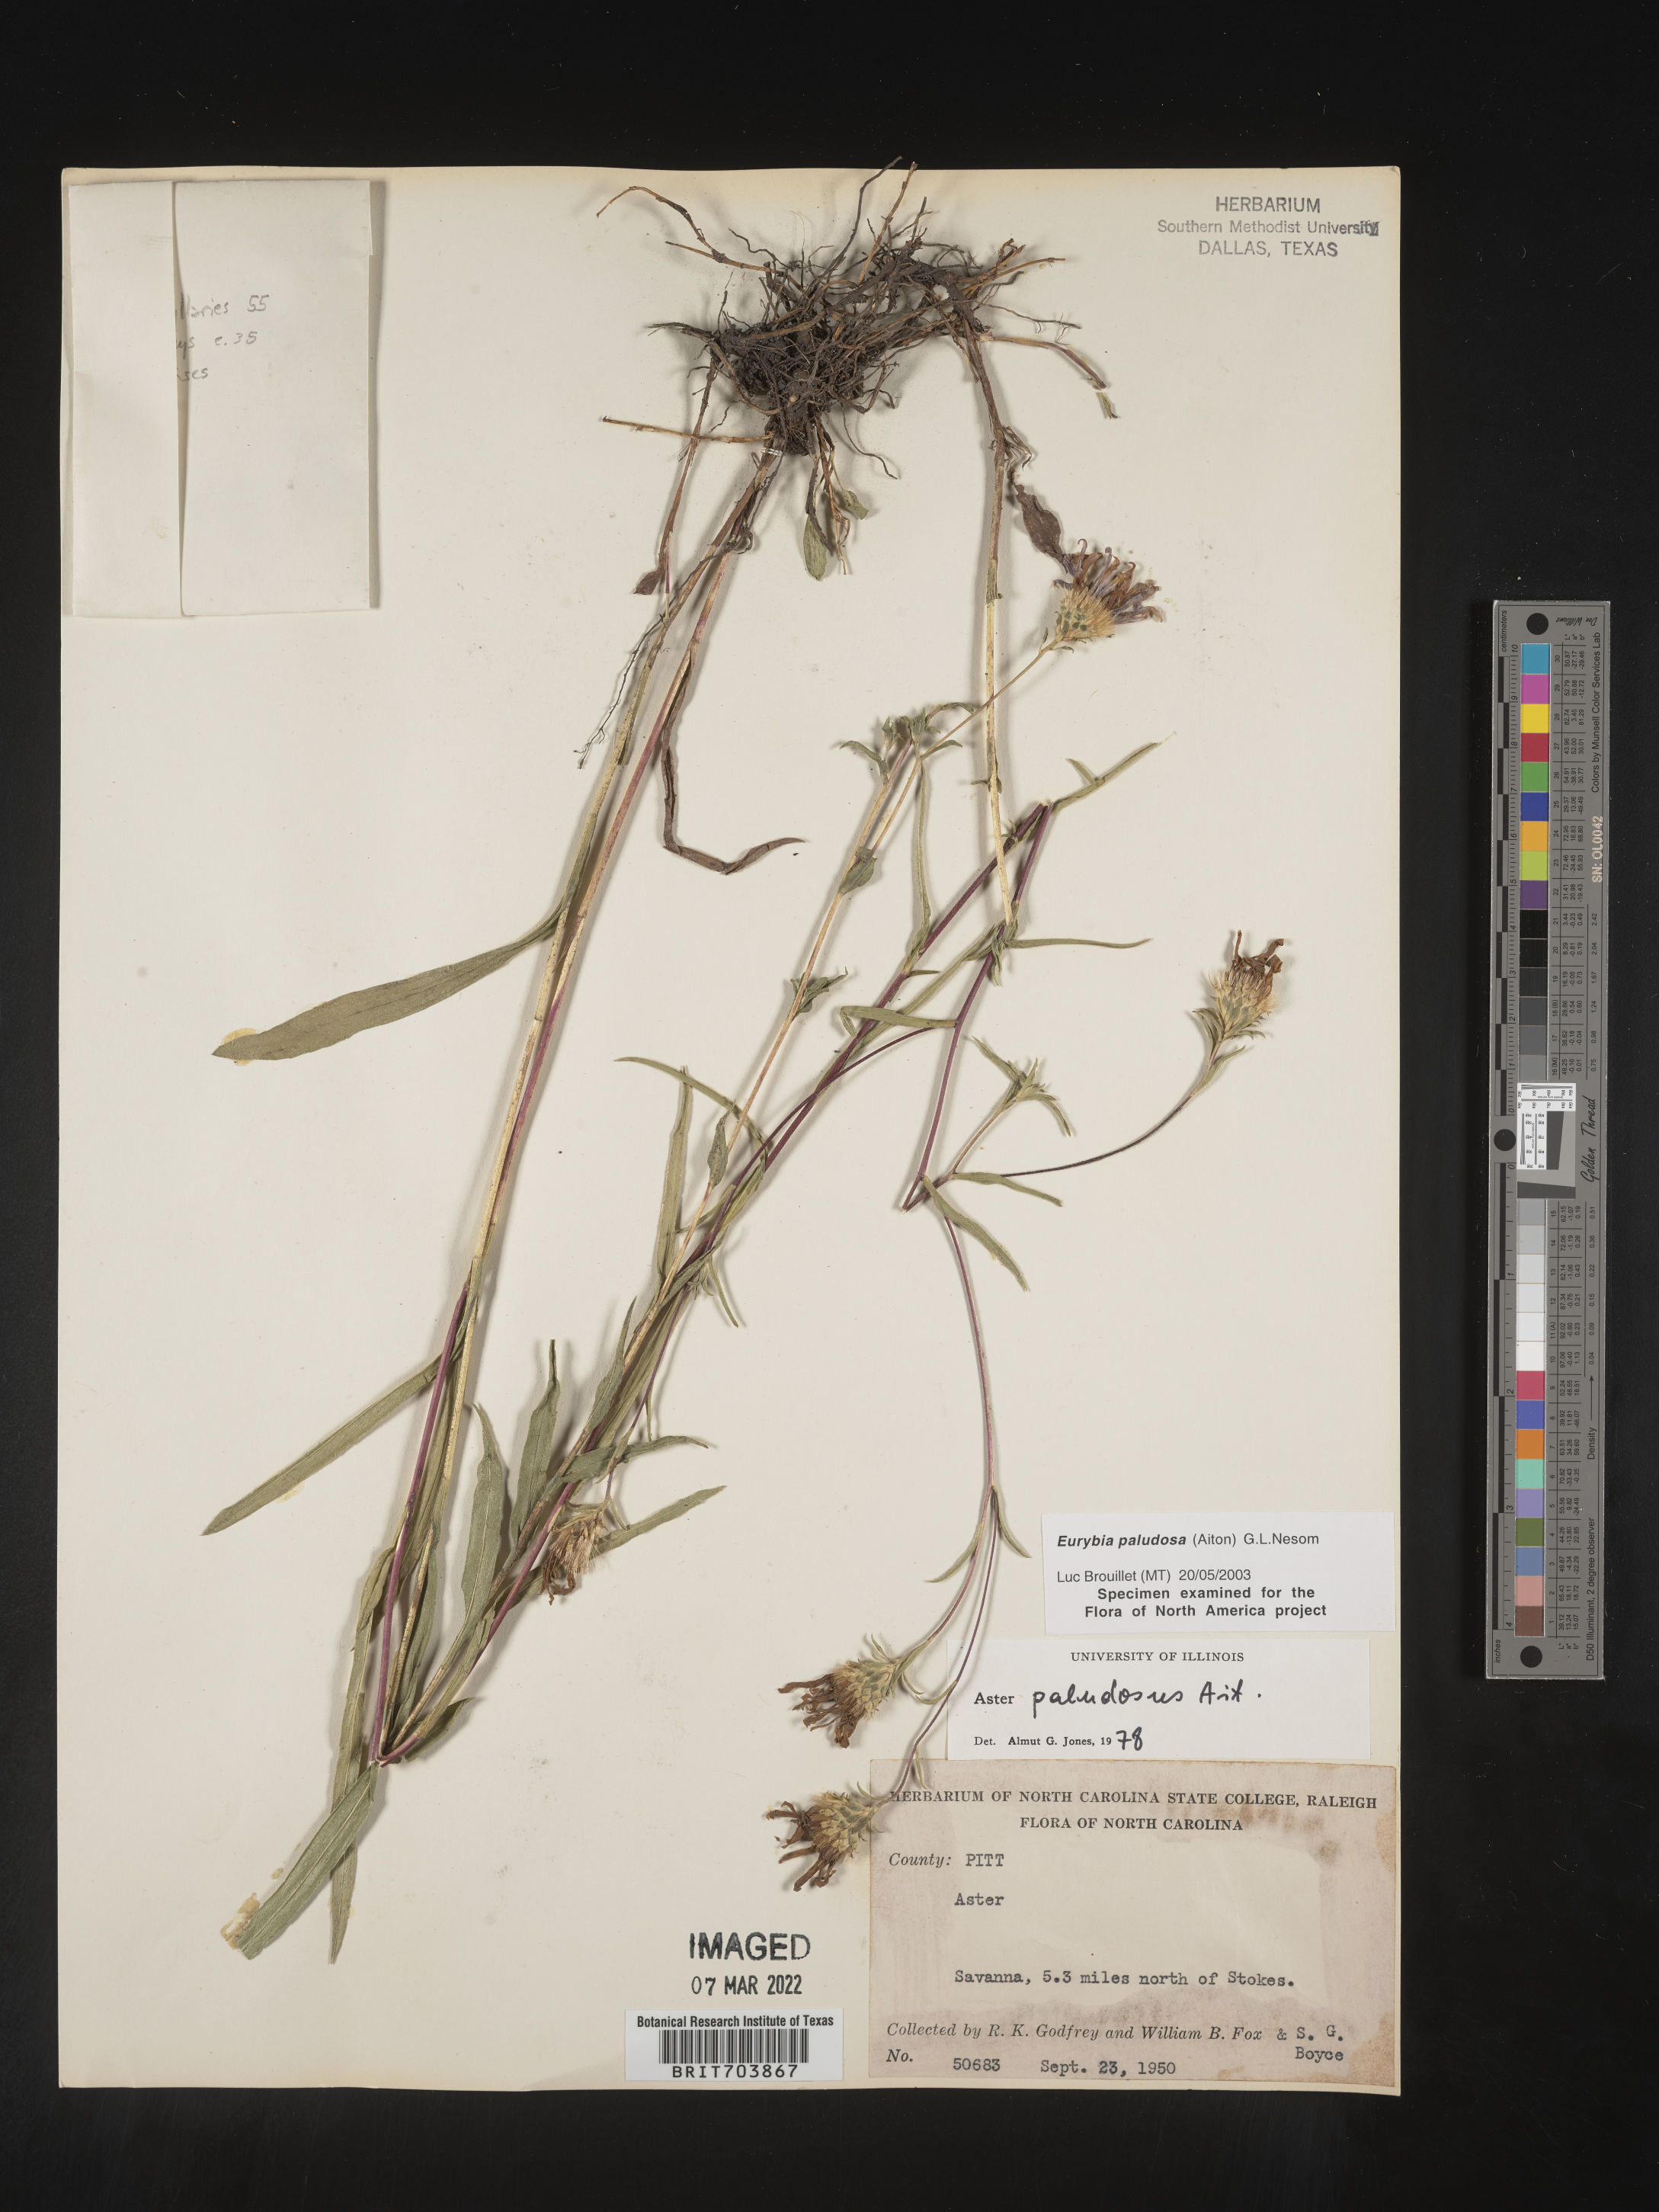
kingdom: Plantae
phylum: Tracheophyta
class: Magnoliopsida
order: Asterales
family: Asteraceae
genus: Eurybia
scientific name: Eurybia paludosa
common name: Southern swamp aster
